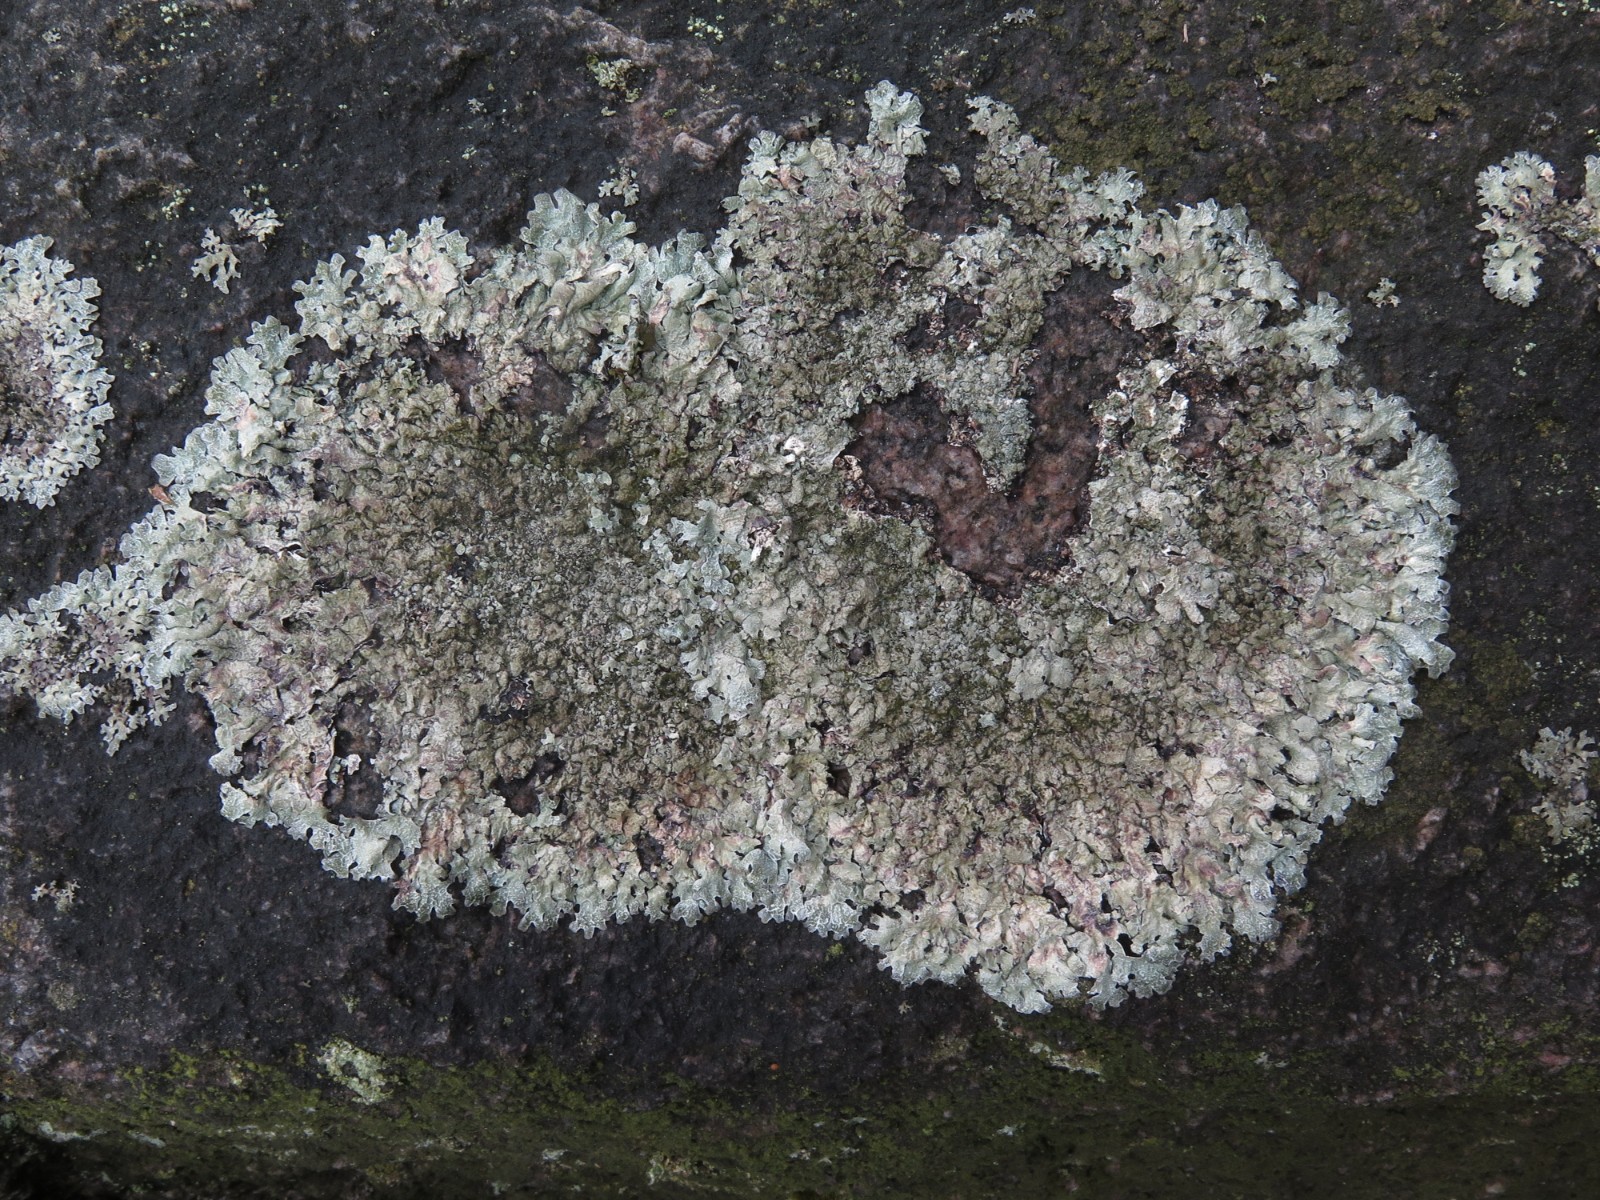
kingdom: Fungi
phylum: Ascomycota
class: Lecanoromycetes
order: Lecanorales
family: Parmeliaceae
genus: Parmelia
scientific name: Parmelia saxatilis
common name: farve-skållav
